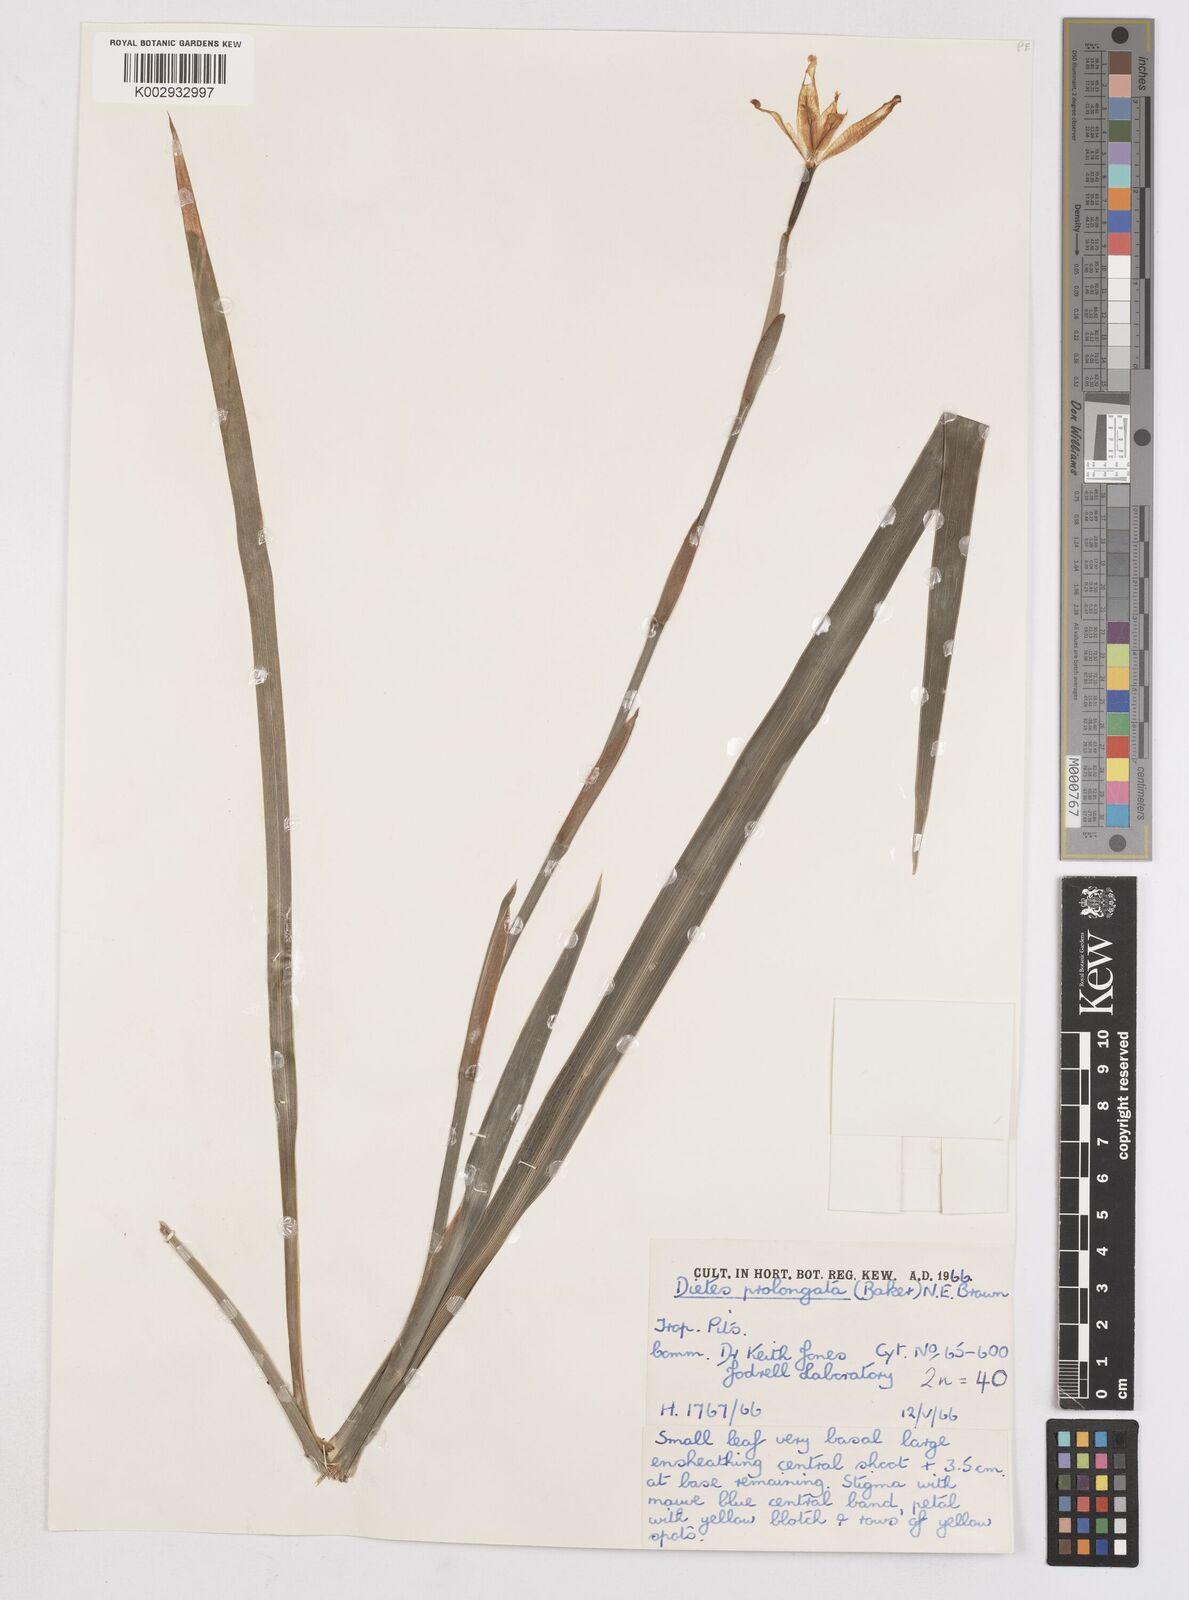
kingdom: Plantae
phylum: Tracheophyta
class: Liliopsida
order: Asparagales
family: Iridaceae
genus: Dietes
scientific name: Dietes iridioides
